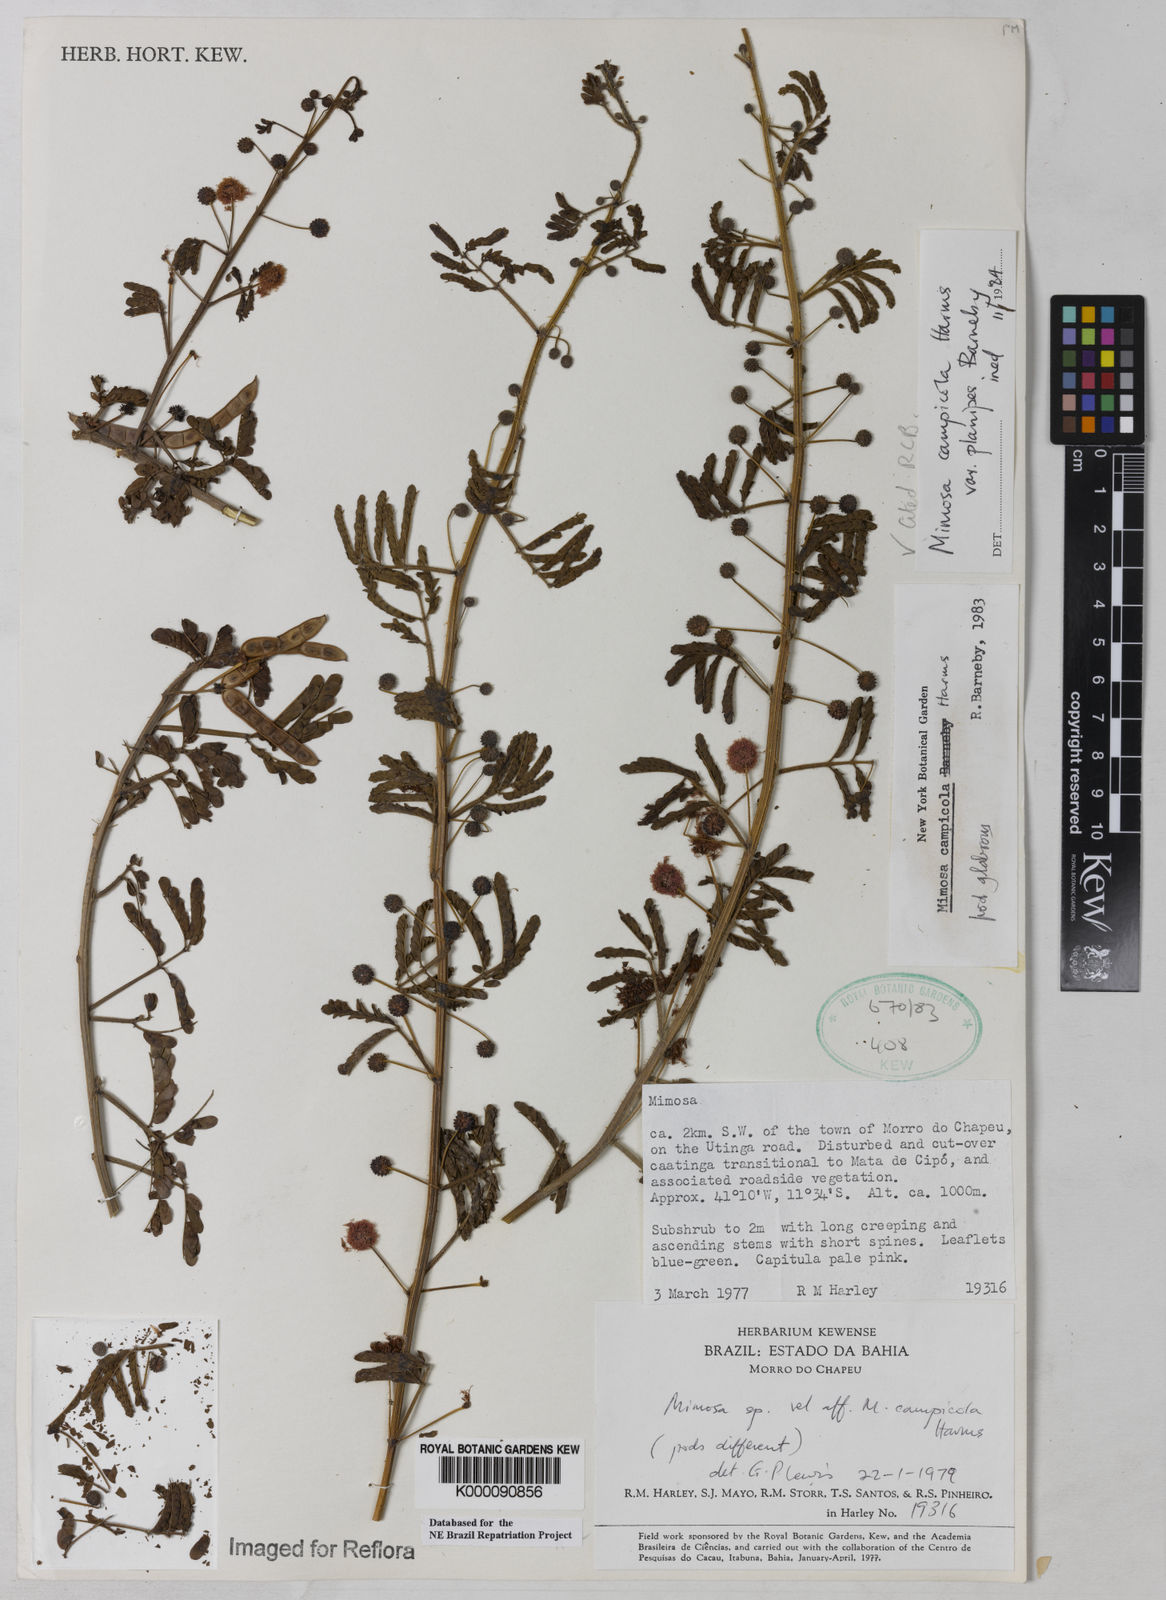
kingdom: Plantae
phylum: Tracheophyta
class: Magnoliopsida
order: Fabales
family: Fabaceae
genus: Mimosa
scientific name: Mimosa campicola
